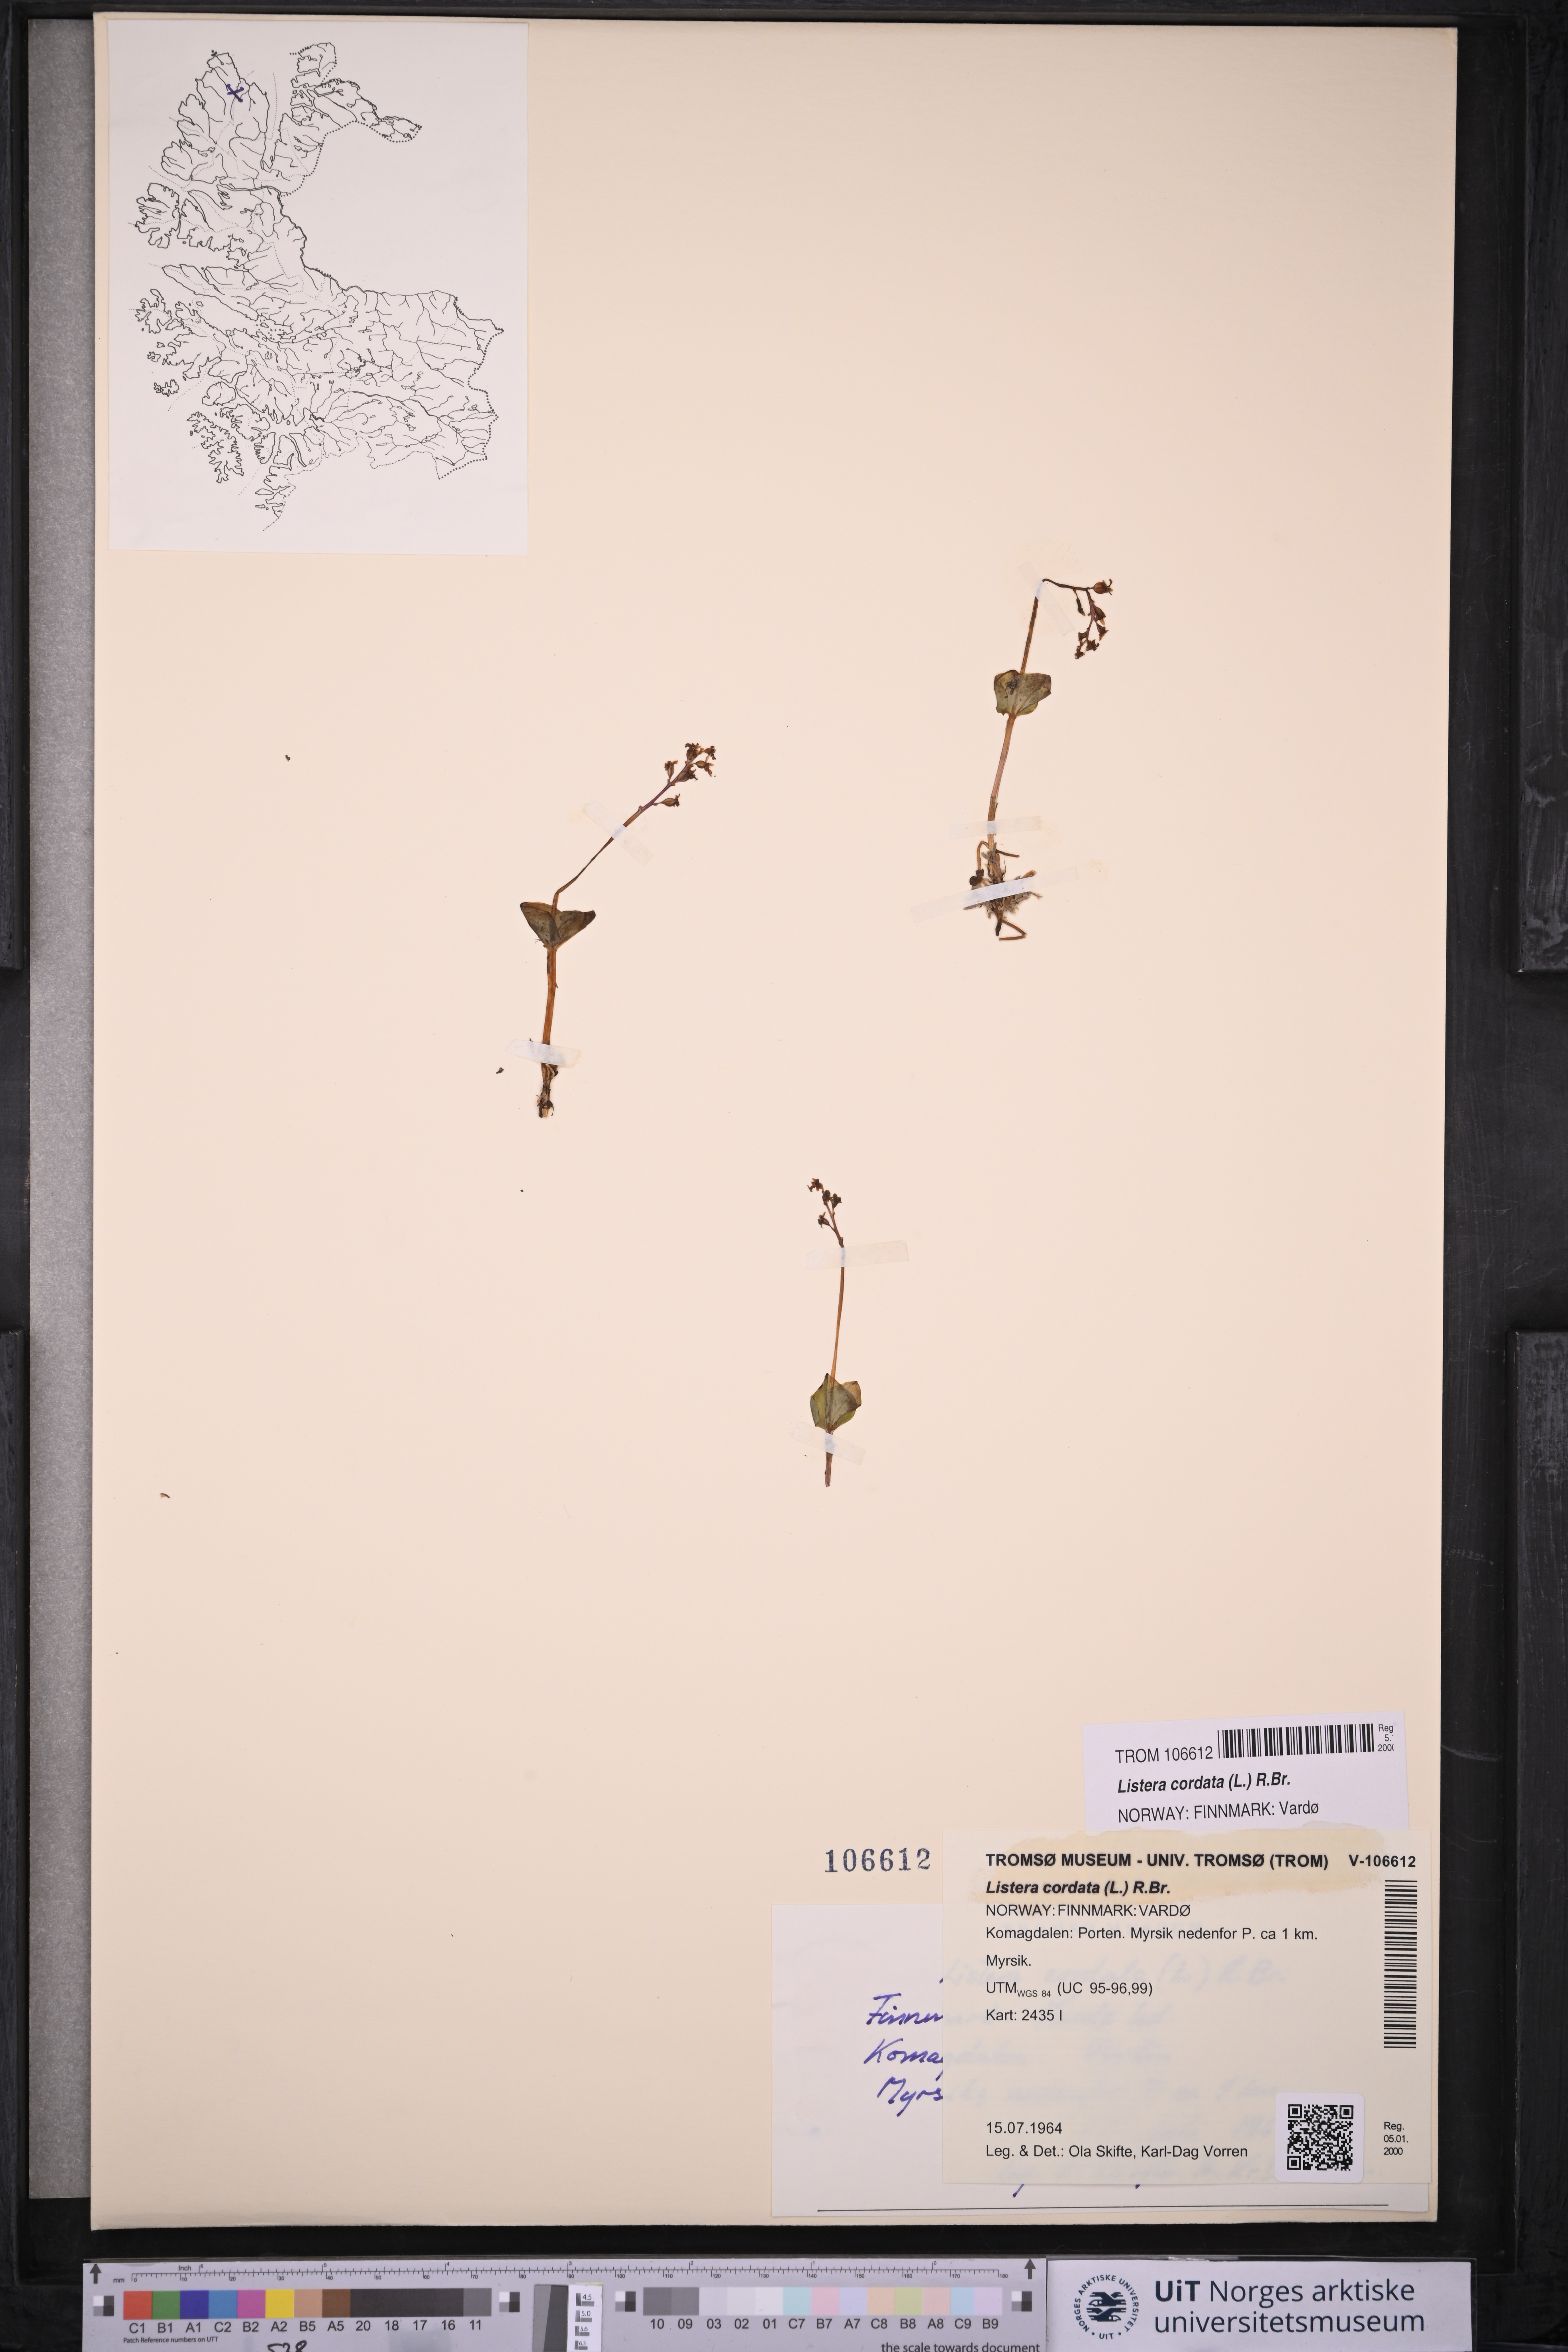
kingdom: Plantae
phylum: Tracheophyta
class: Liliopsida
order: Asparagales
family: Orchidaceae
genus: Neottia
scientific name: Neottia cordata
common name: Lesser twayblade
